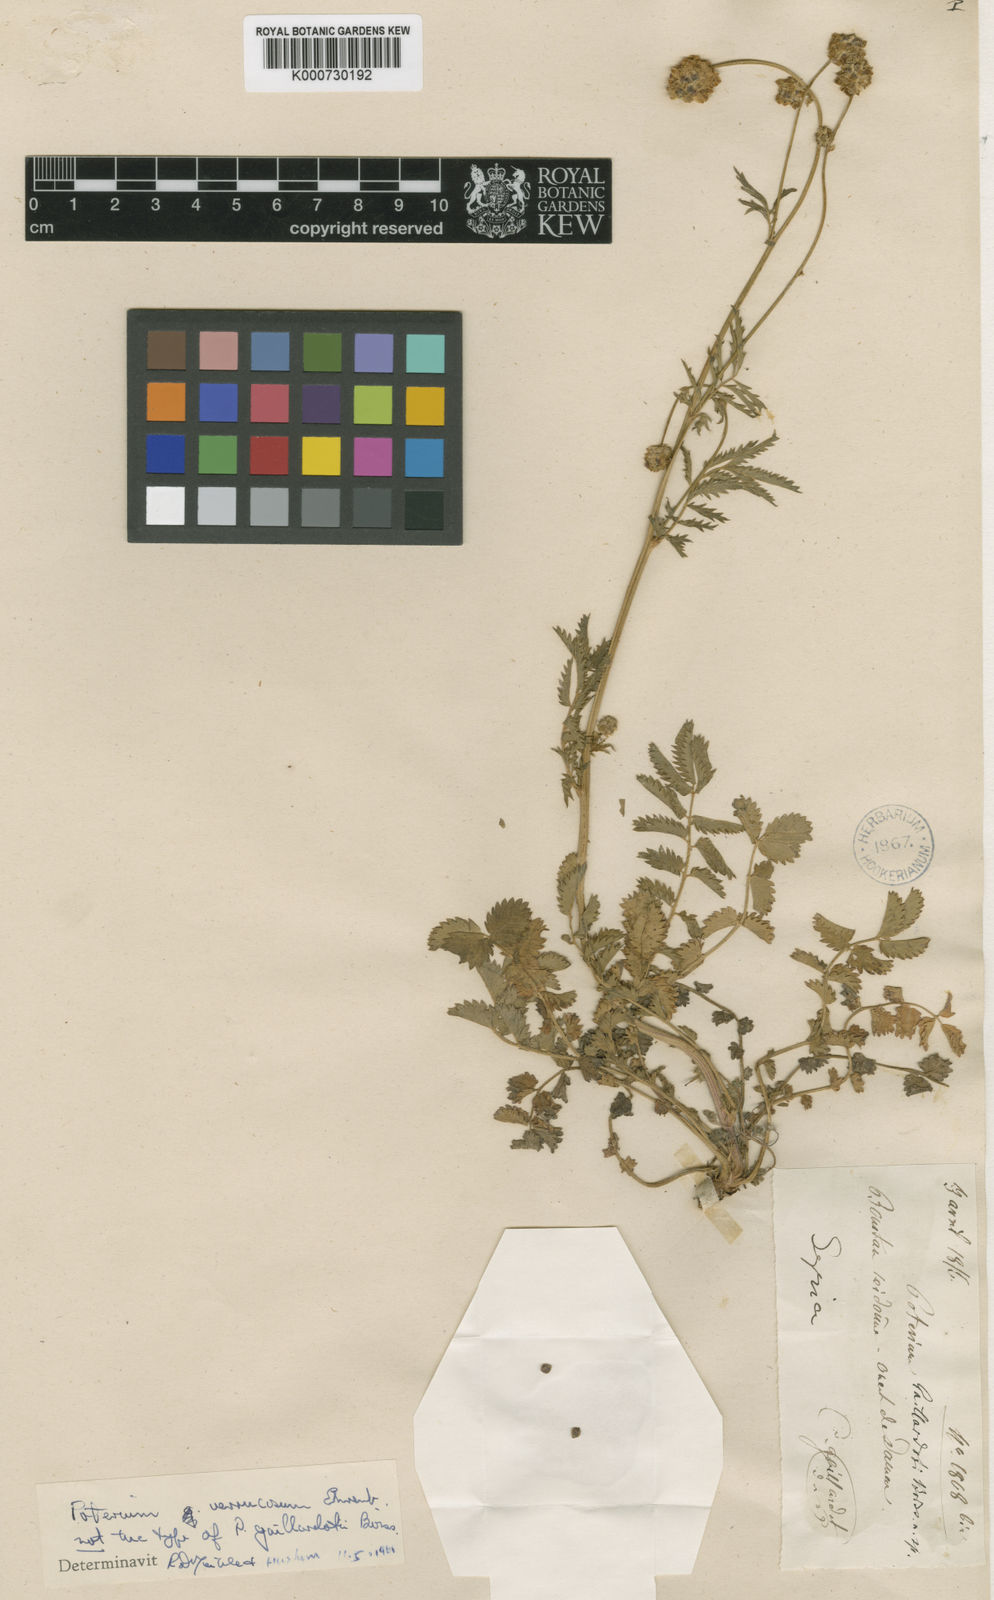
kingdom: Plantae
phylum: Tracheophyta
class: Magnoliopsida
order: Rosales
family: Rosaceae
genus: Poterium
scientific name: Poterium sanguisorba
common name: Salad burnet
